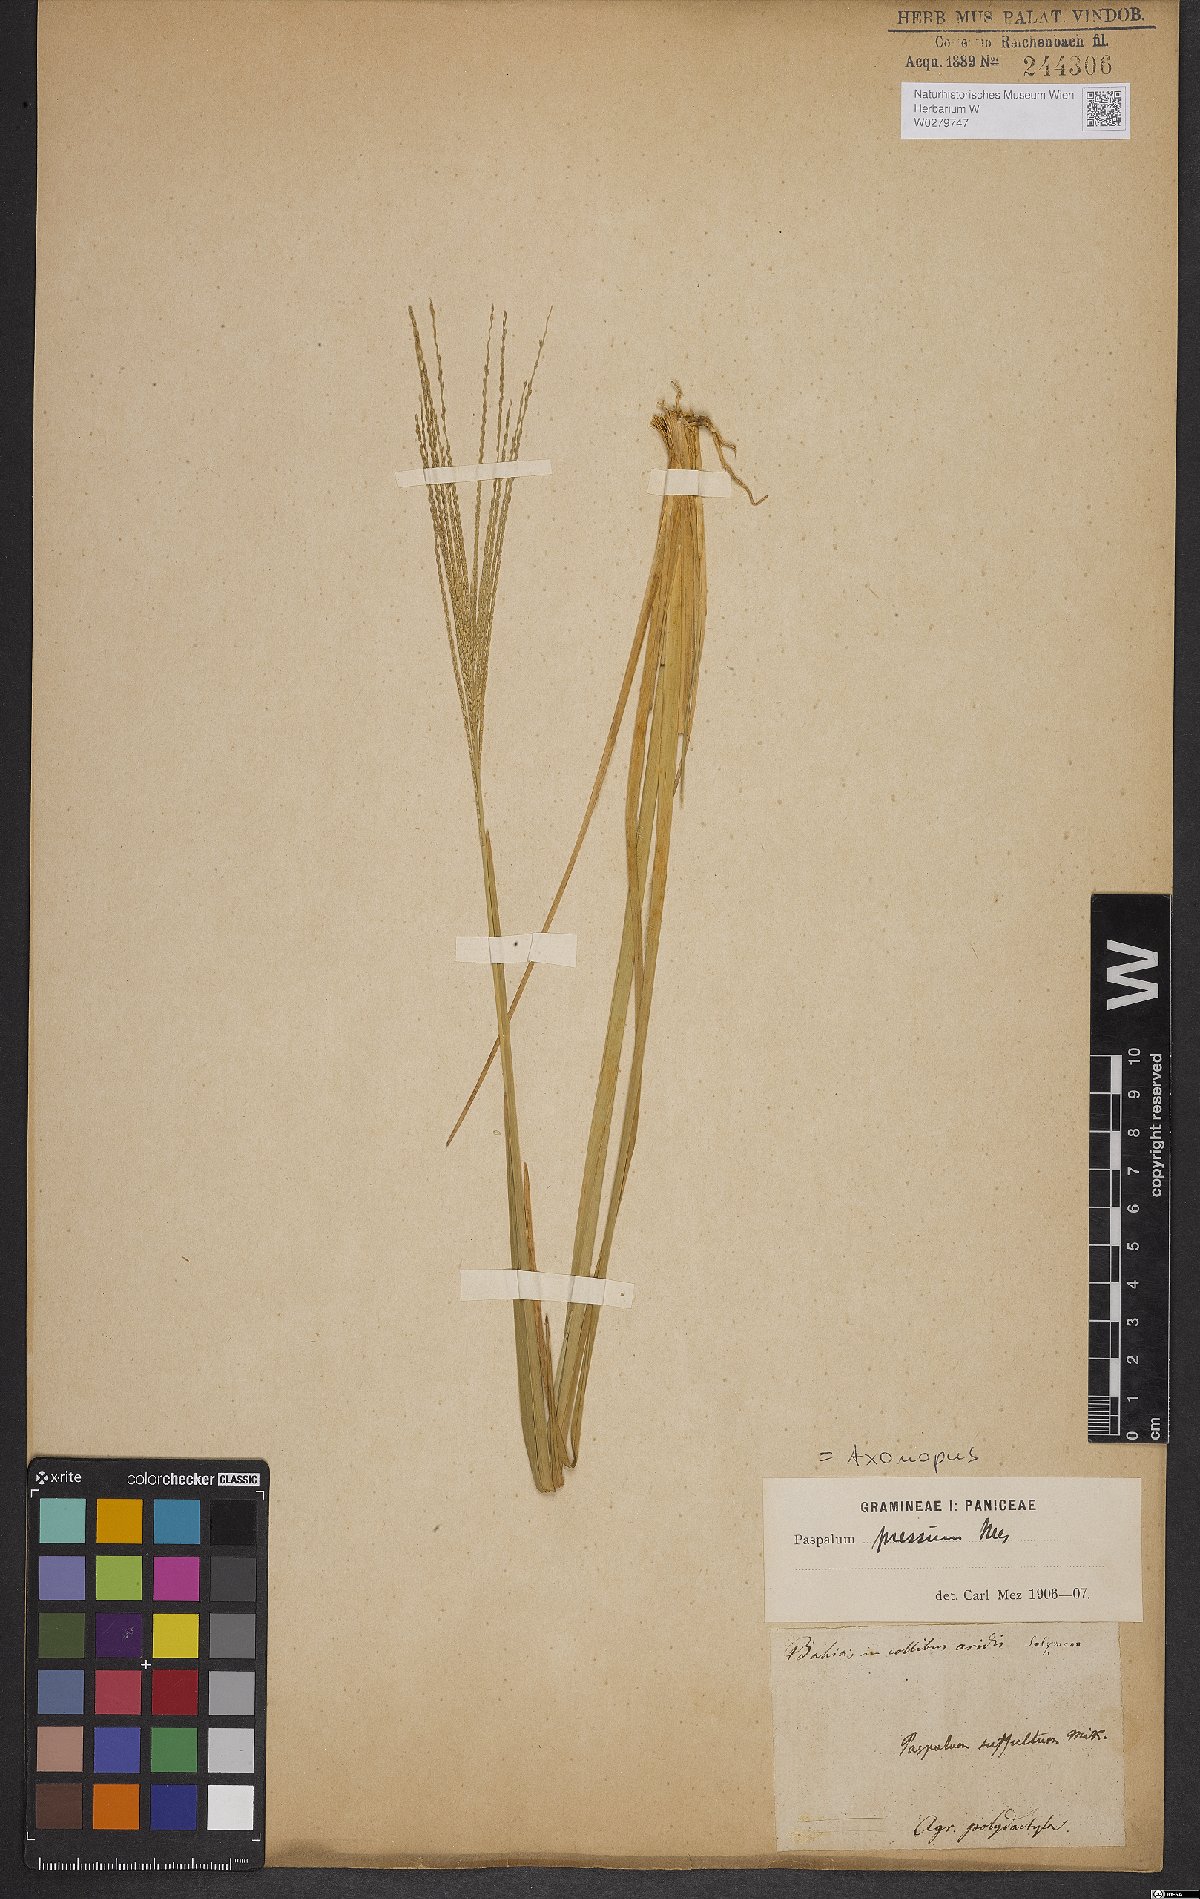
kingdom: Plantae
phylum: Tracheophyta
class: Liliopsida
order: Poales
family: Poaceae
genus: Axonopus
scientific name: Axonopus pressus
